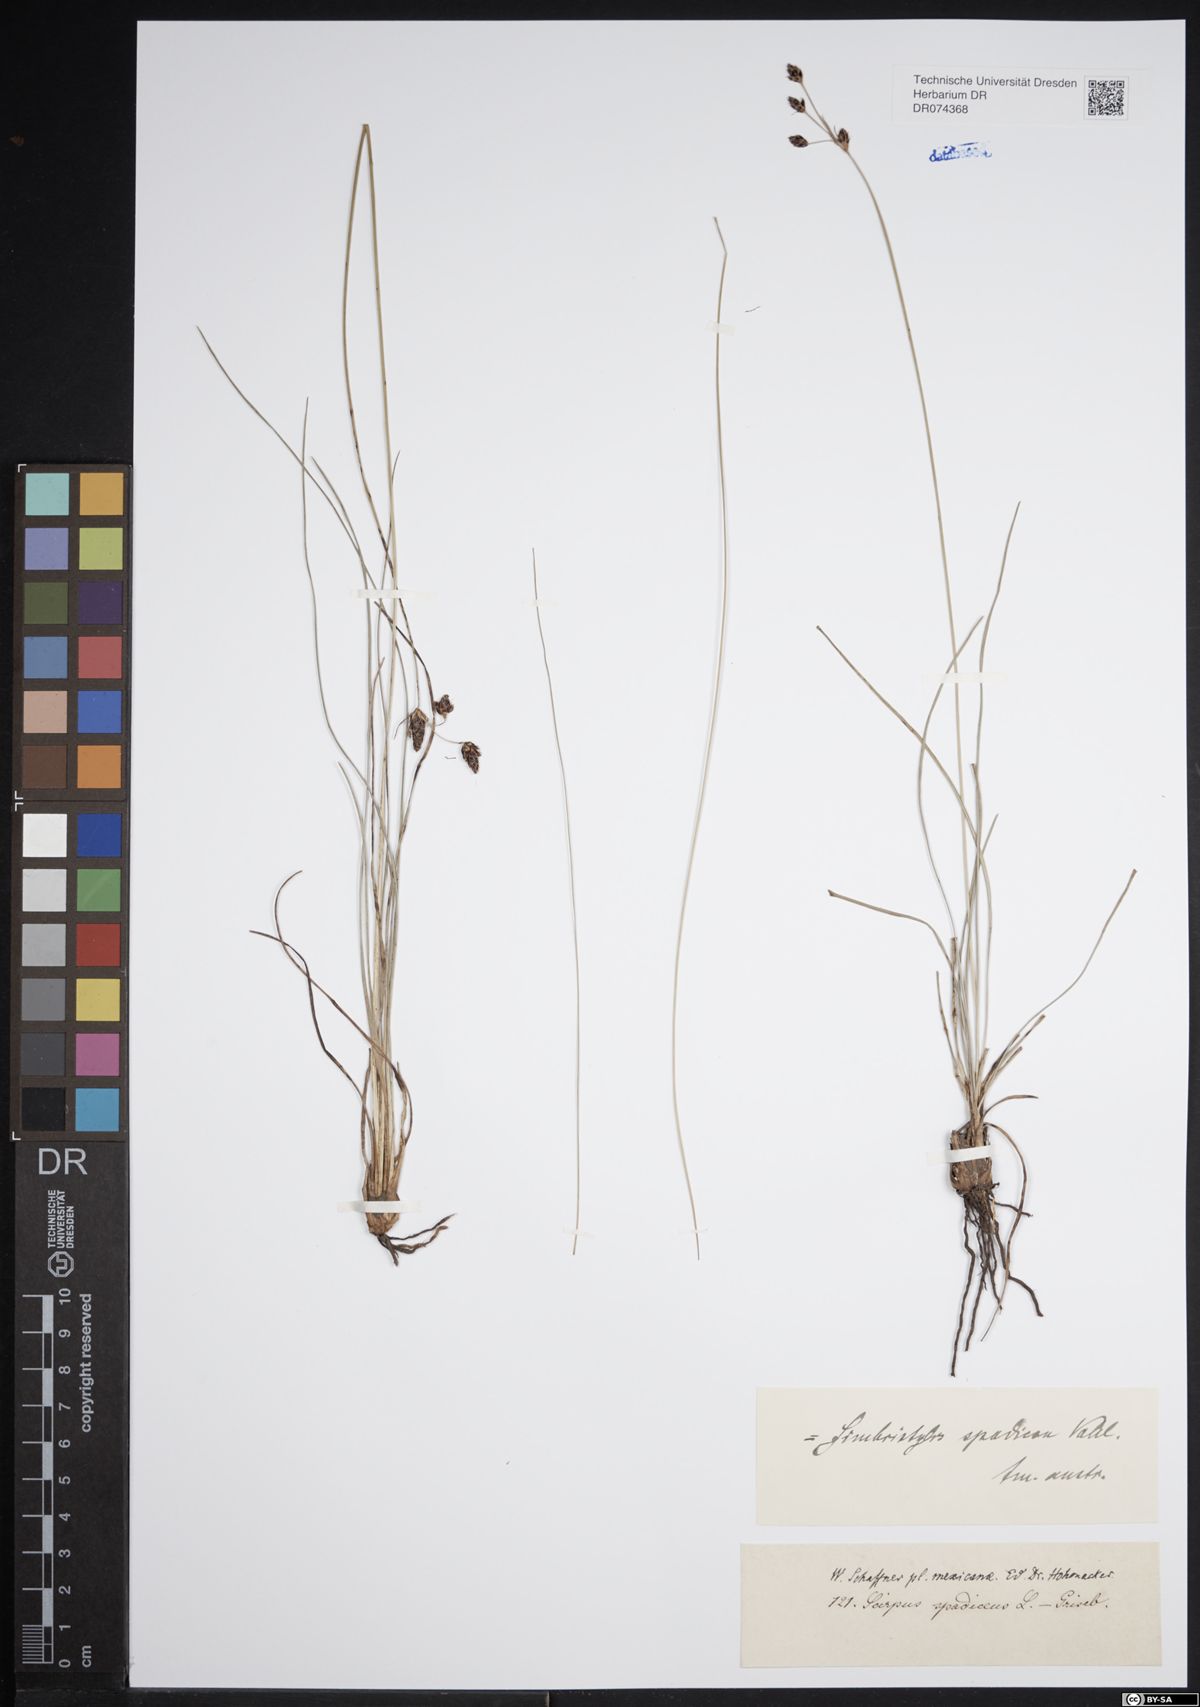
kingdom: Plantae
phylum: Tracheophyta
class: Liliopsida
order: Poales
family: Cyperaceae
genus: Fimbristylis
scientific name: Fimbristylis spadicea
